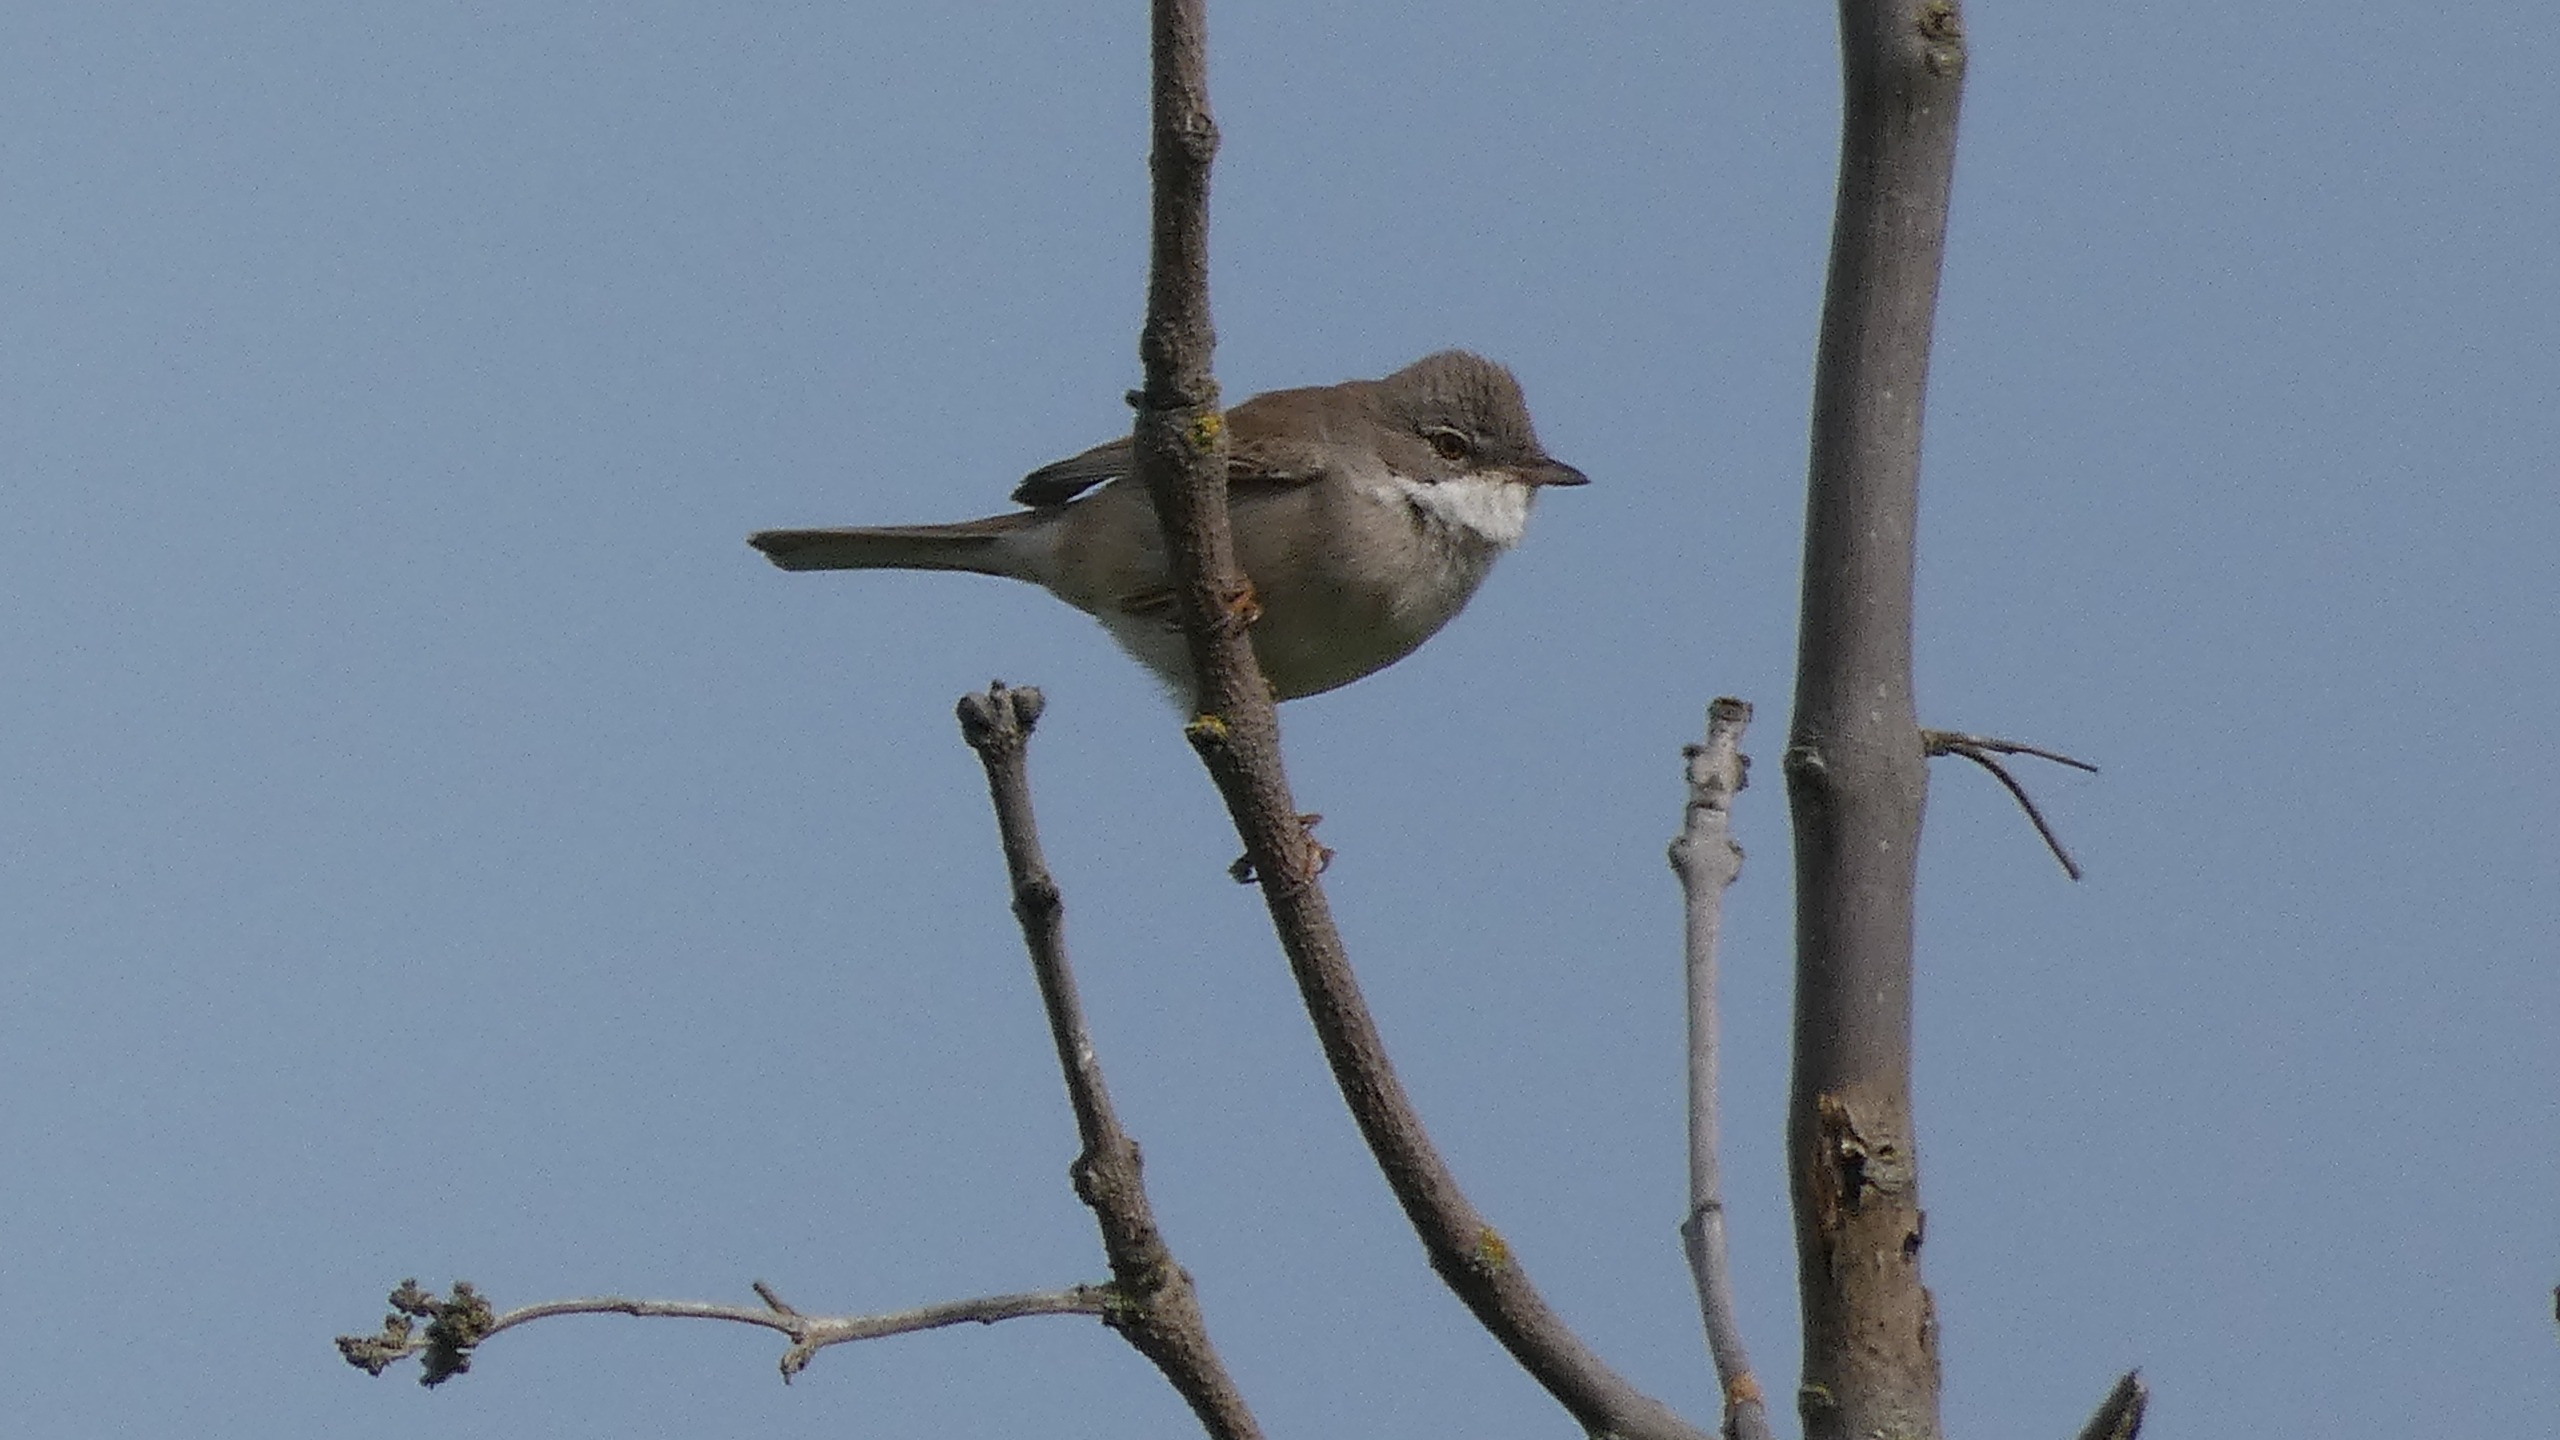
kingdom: Animalia
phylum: Chordata
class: Aves
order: Passeriformes
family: Sylviidae
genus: Sylvia
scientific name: Sylvia communis
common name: Tornsanger
